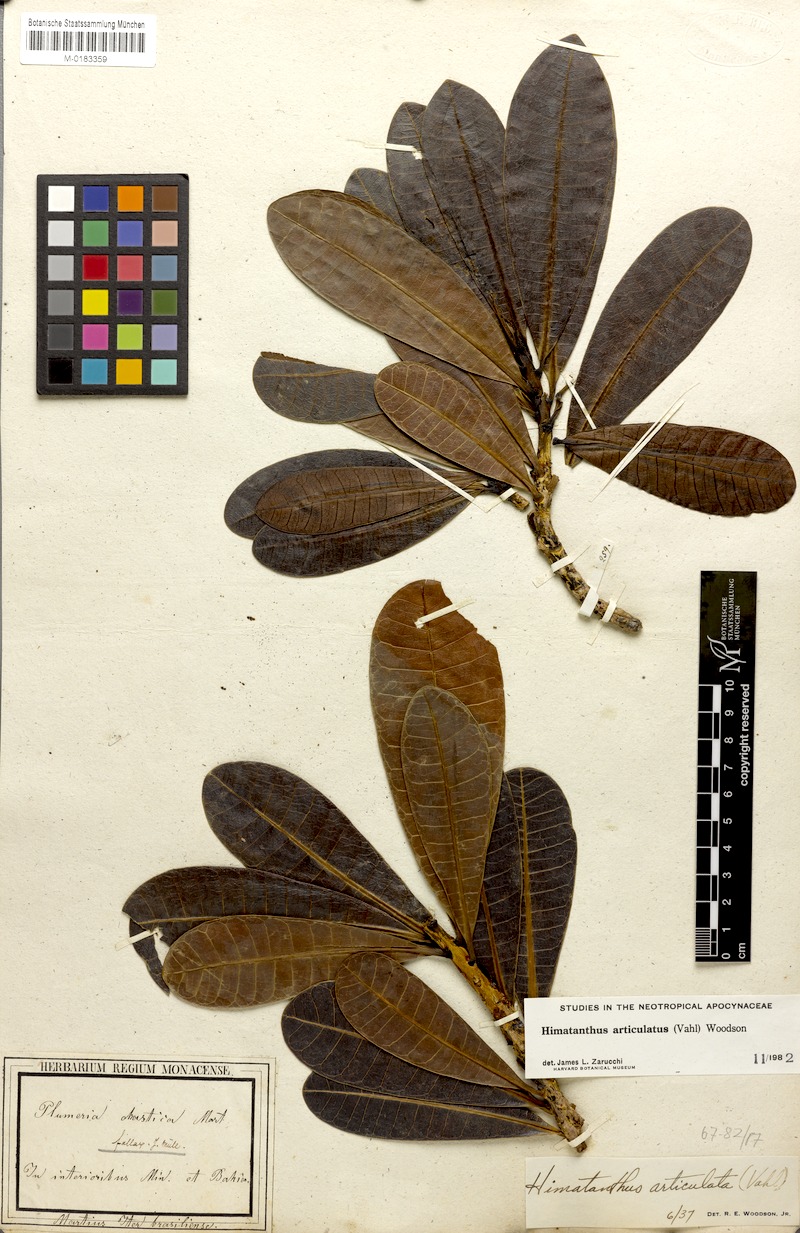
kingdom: Plantae
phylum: Tracheophyta
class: Magnoliopsida
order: Gentianales
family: Apocynaceae
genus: Himatanthus
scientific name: Himatanthus articulatus
